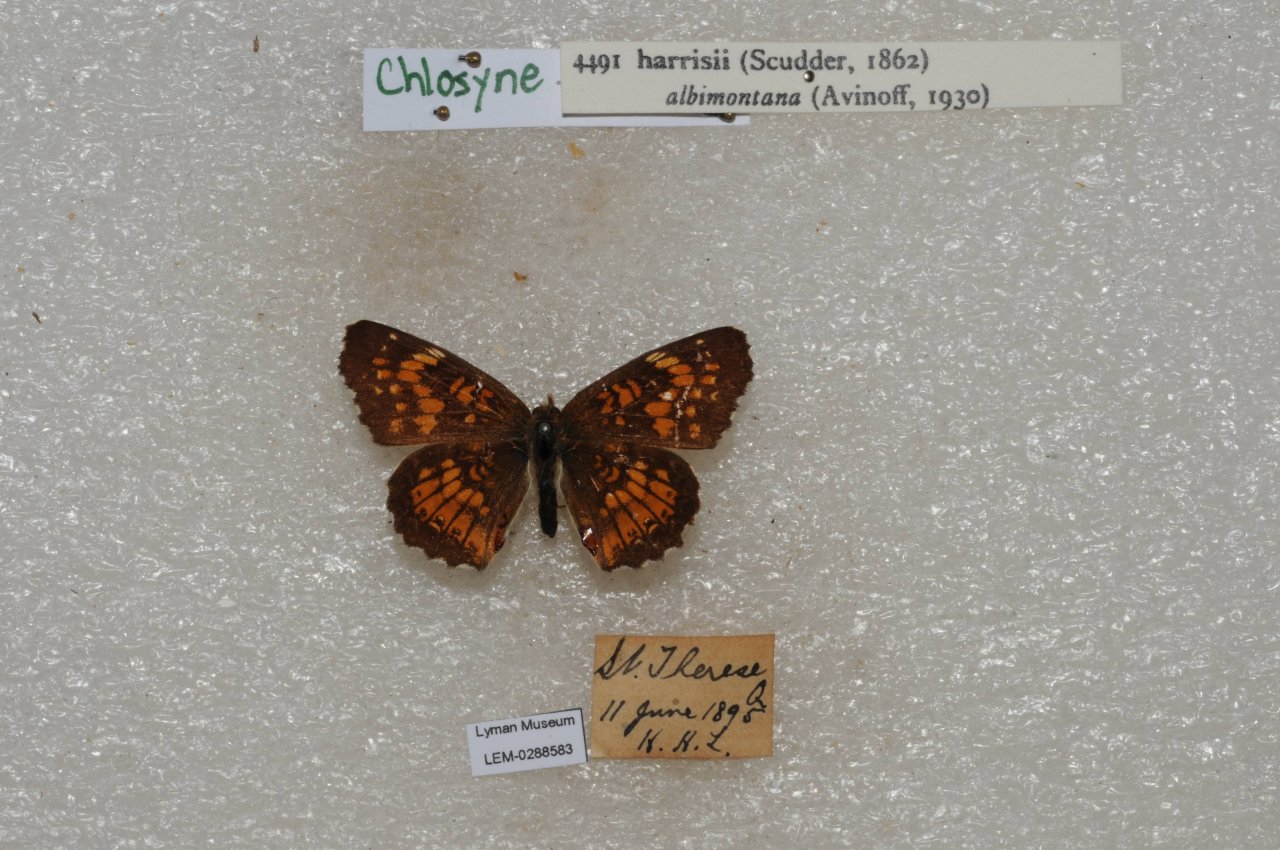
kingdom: Animalia
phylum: Arthropoda
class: Insecta
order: Lepidoptera
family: Nymphalidae
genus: Chlosyne
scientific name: Chlosyne harrisii
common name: Harris's Checkerspot
